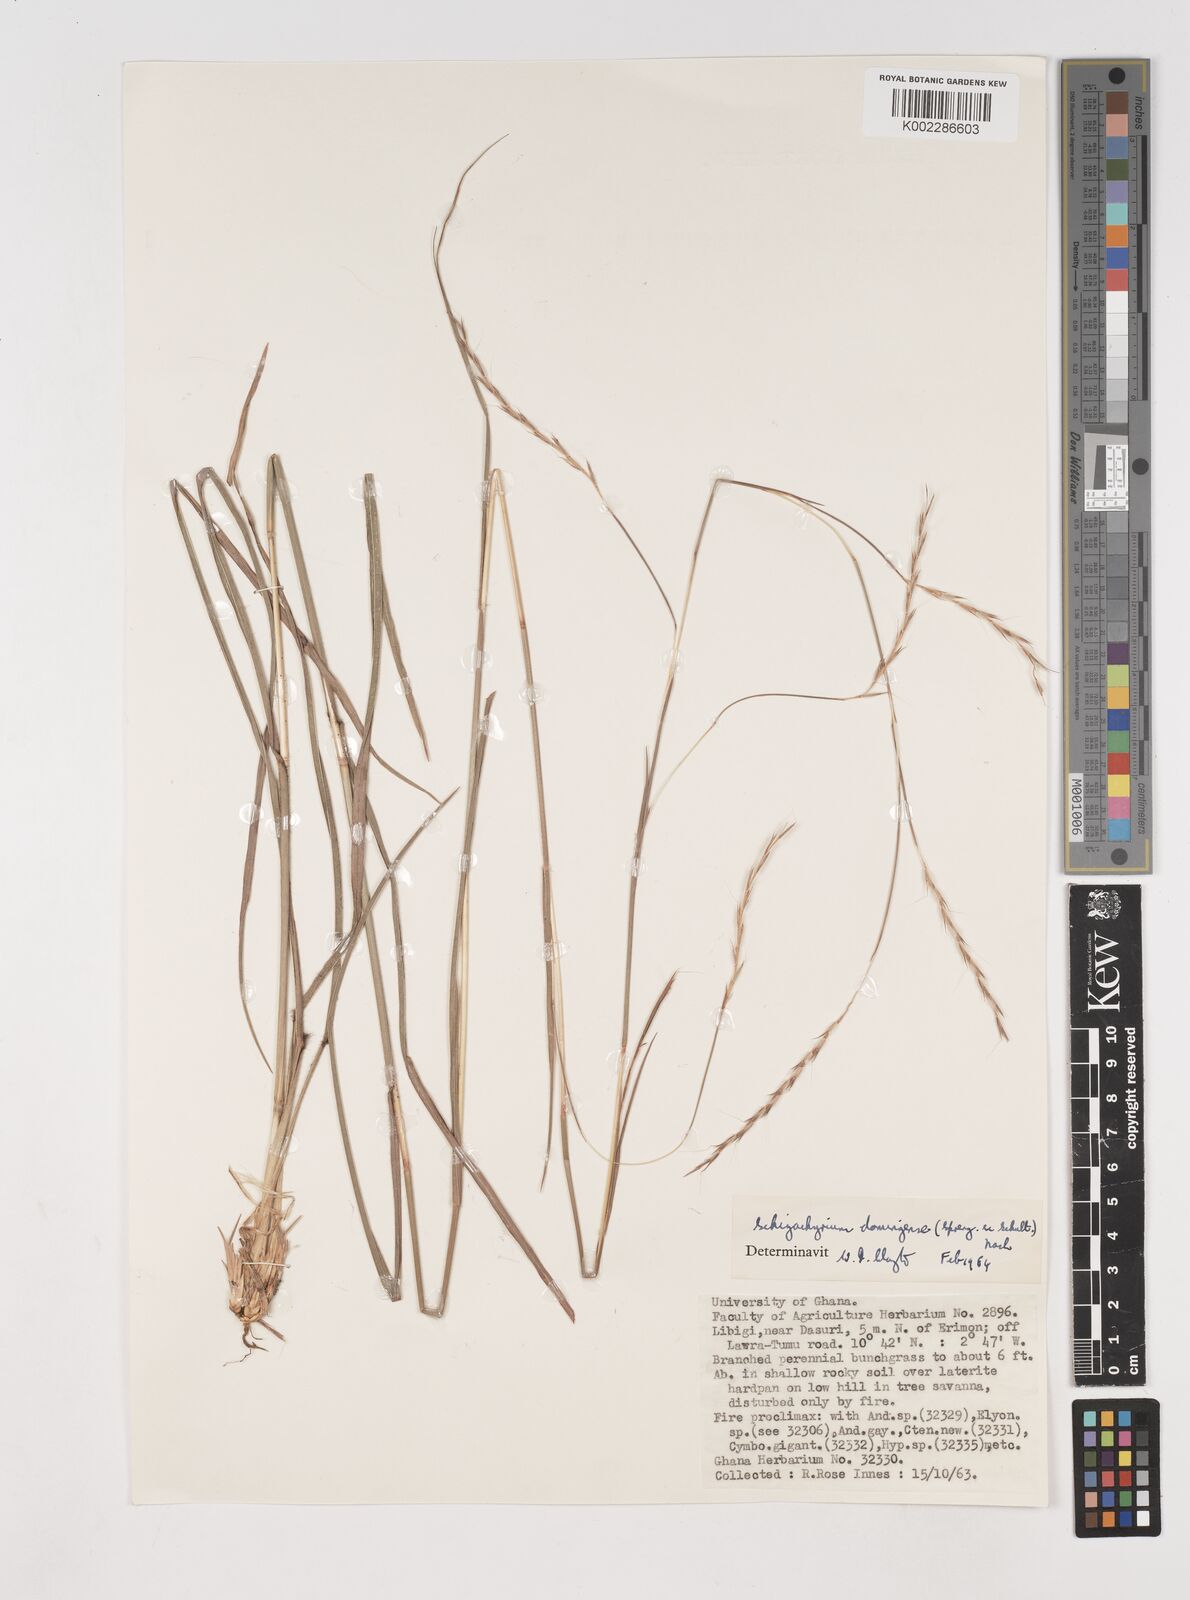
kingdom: Plantae
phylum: Tracheophyta
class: Liliopsida
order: Poales
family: Poaceae
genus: Schizachyrium
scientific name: Schizachyrium sanguineum
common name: Crimson bluestem
